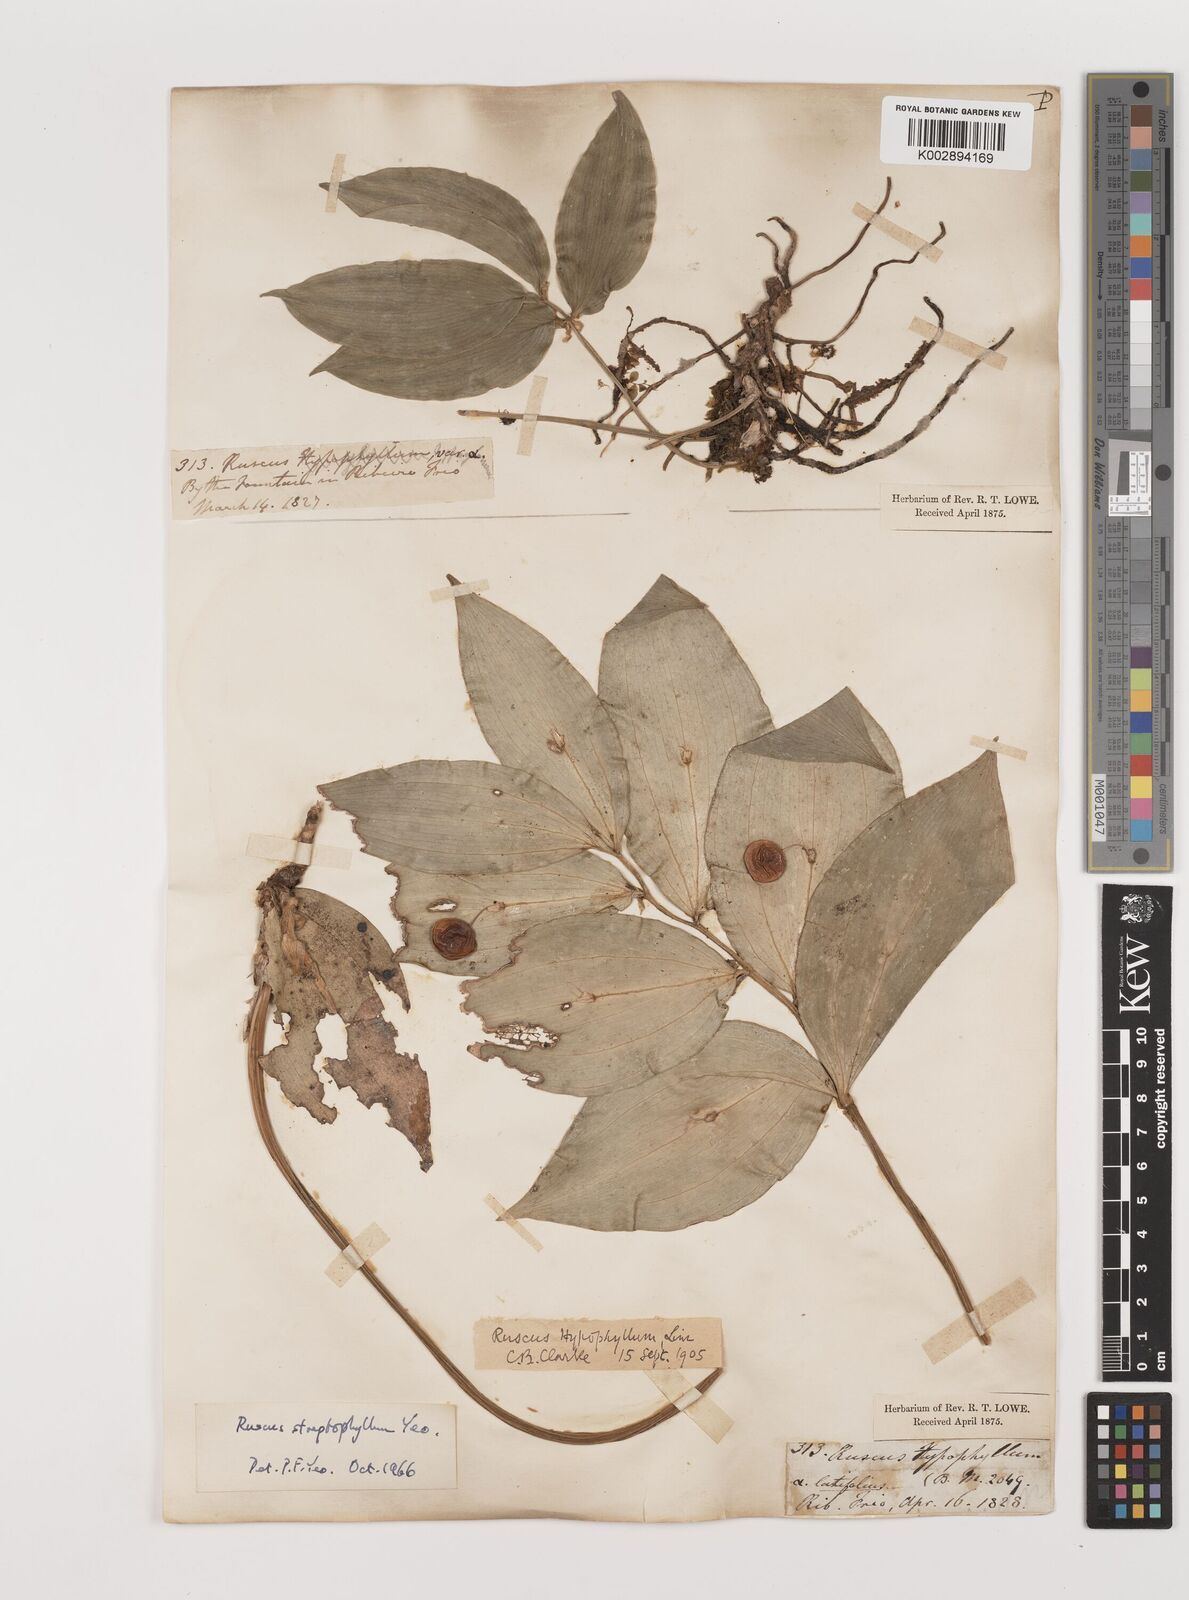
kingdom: Plantae
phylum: Tracheophyta
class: Liliopsida
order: Asparagales
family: Asparagaceae
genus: Ruscus
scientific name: Ruscus hypophyllum
